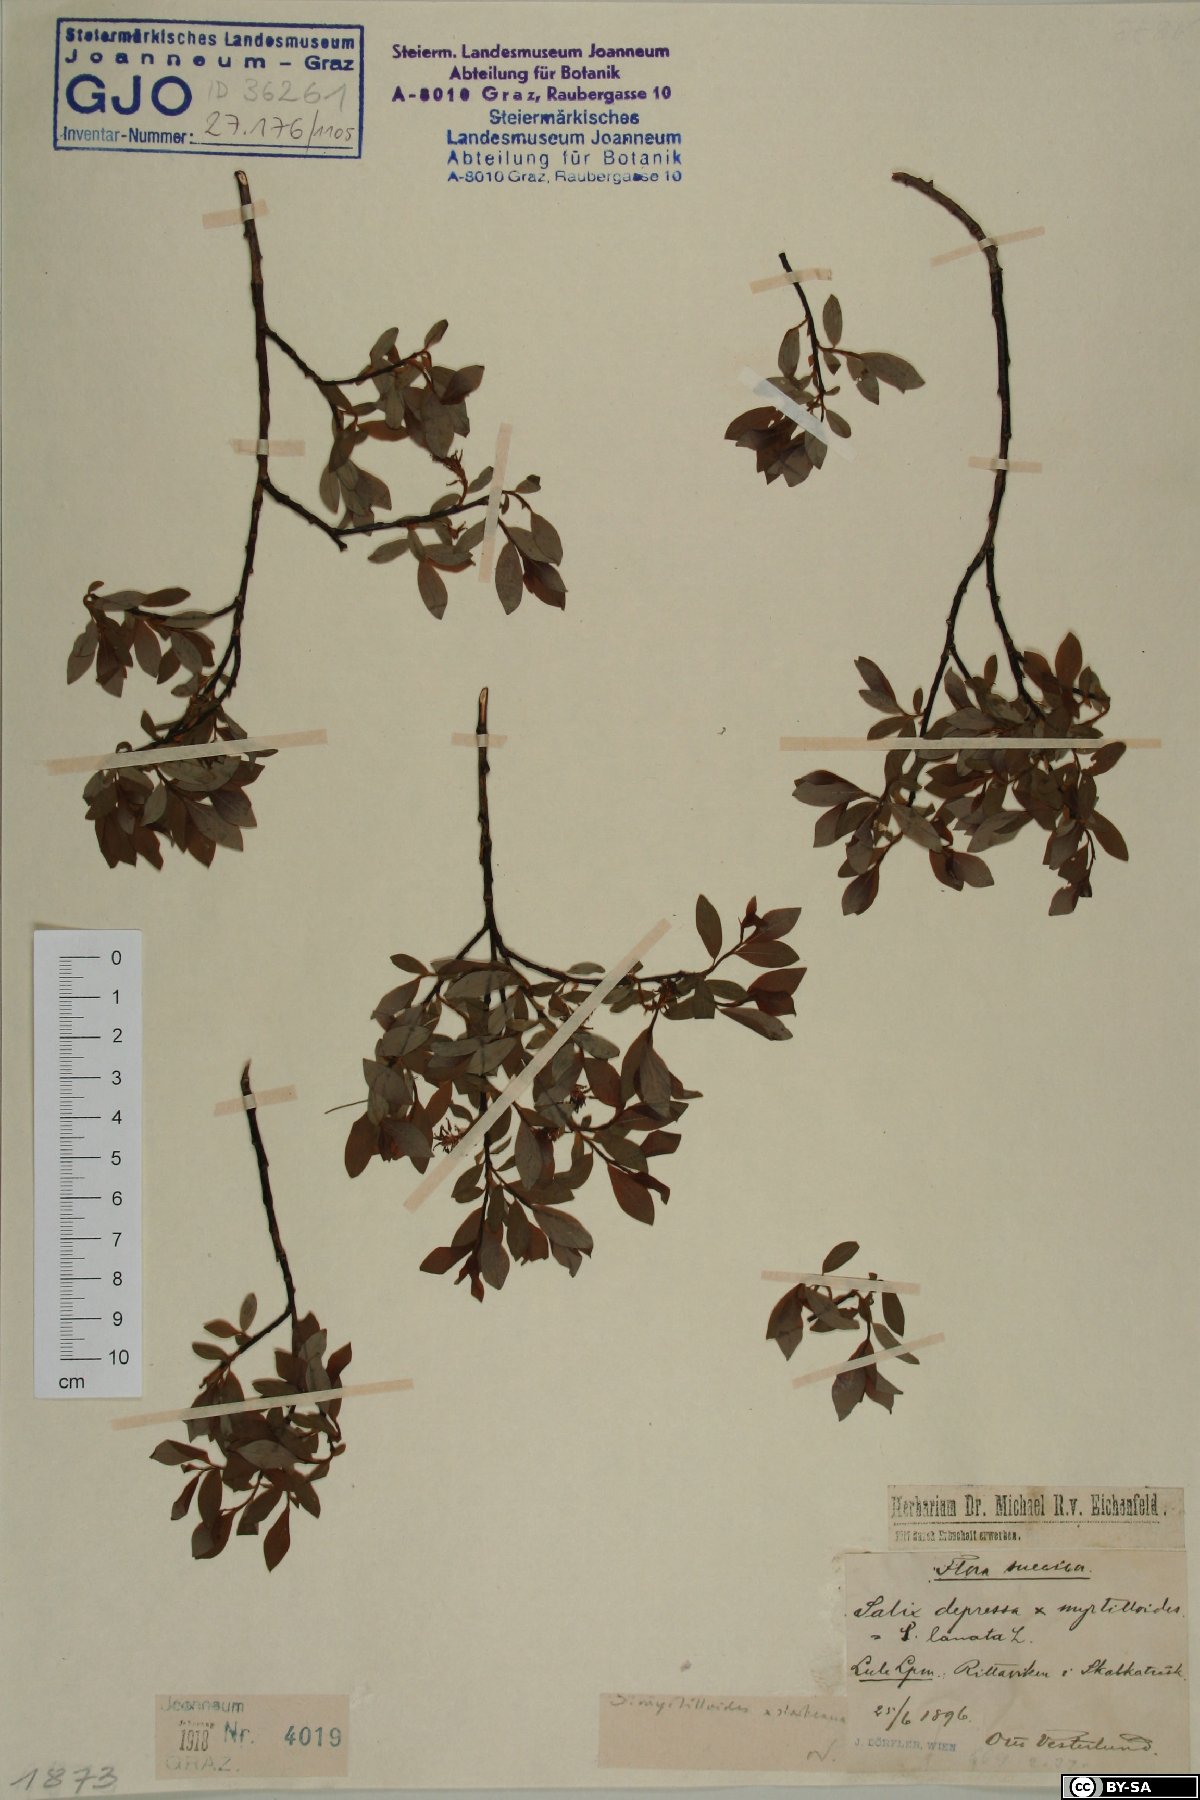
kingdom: Plantae
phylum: Tracheophyta
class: Magnoliopsida
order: Malpighiales
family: Salicaceae
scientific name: Salicaceae
